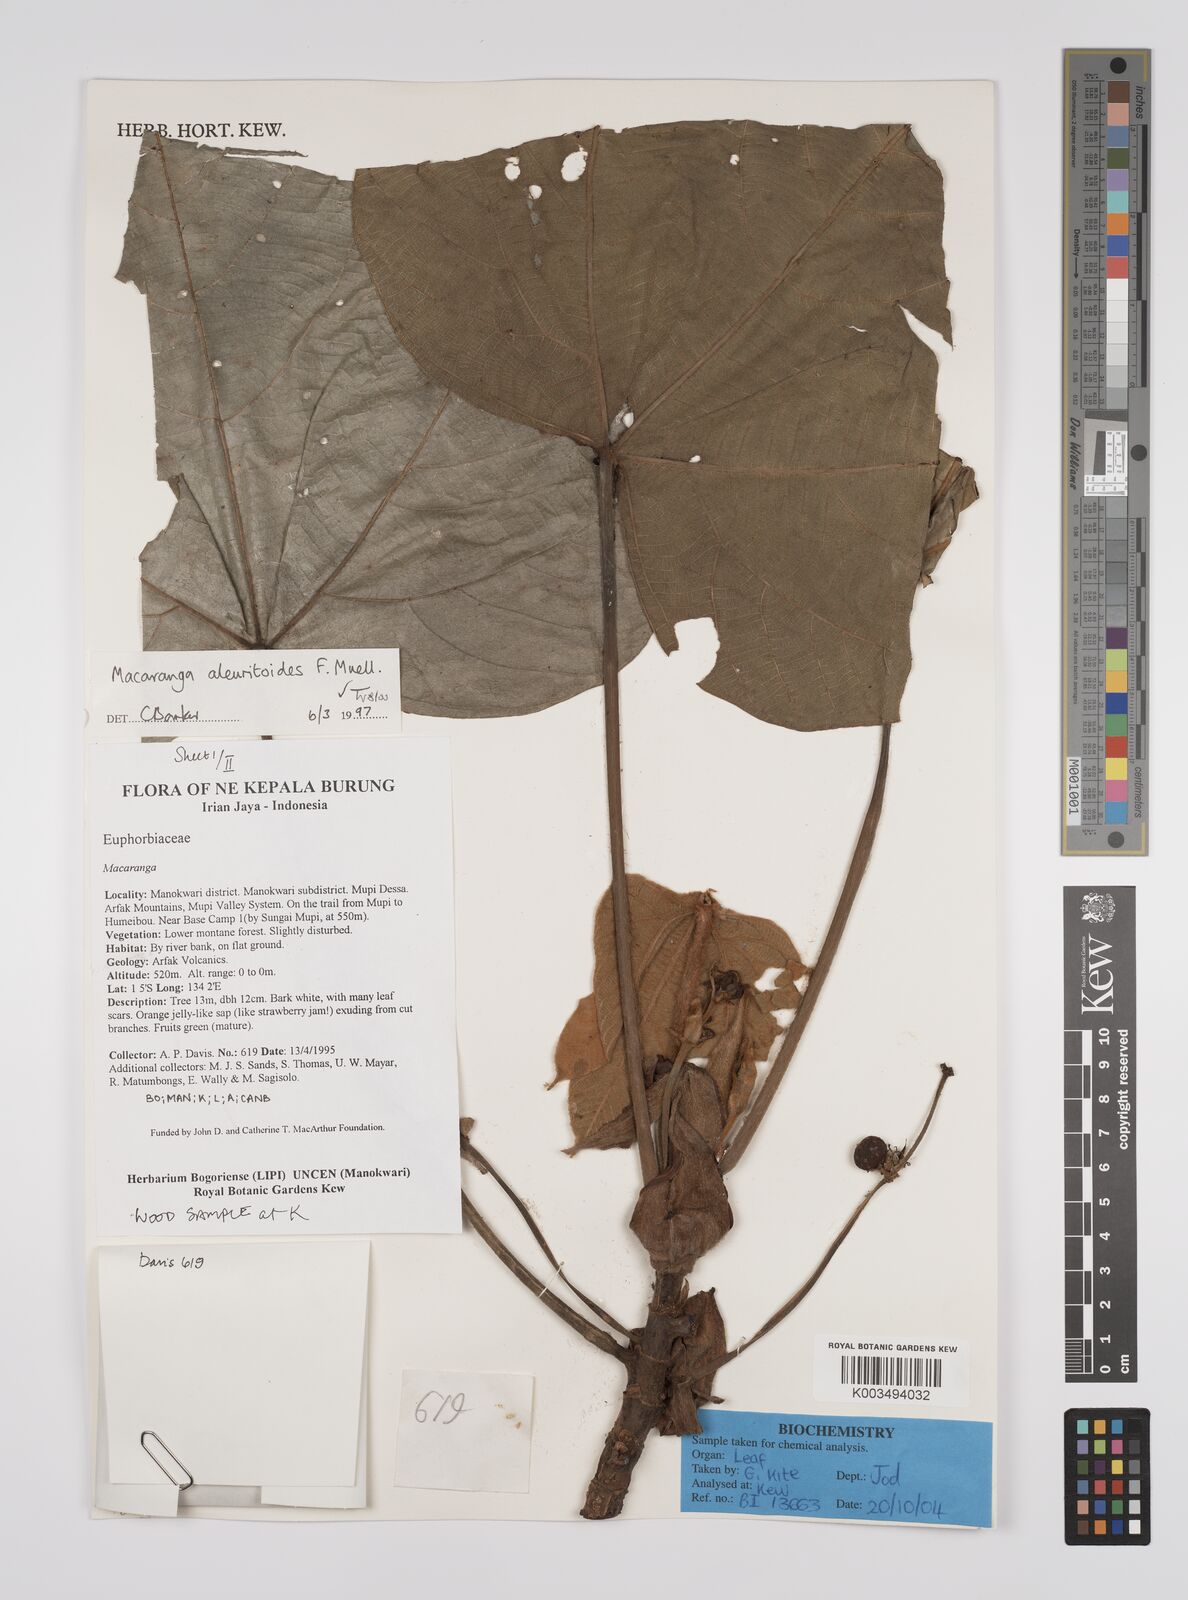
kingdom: Plantae
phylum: Tracheophyta
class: Magnoliopsida
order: Malpighiales
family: Euphorbiaceae
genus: Macaranga
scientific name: Macaranga aleuritoides
